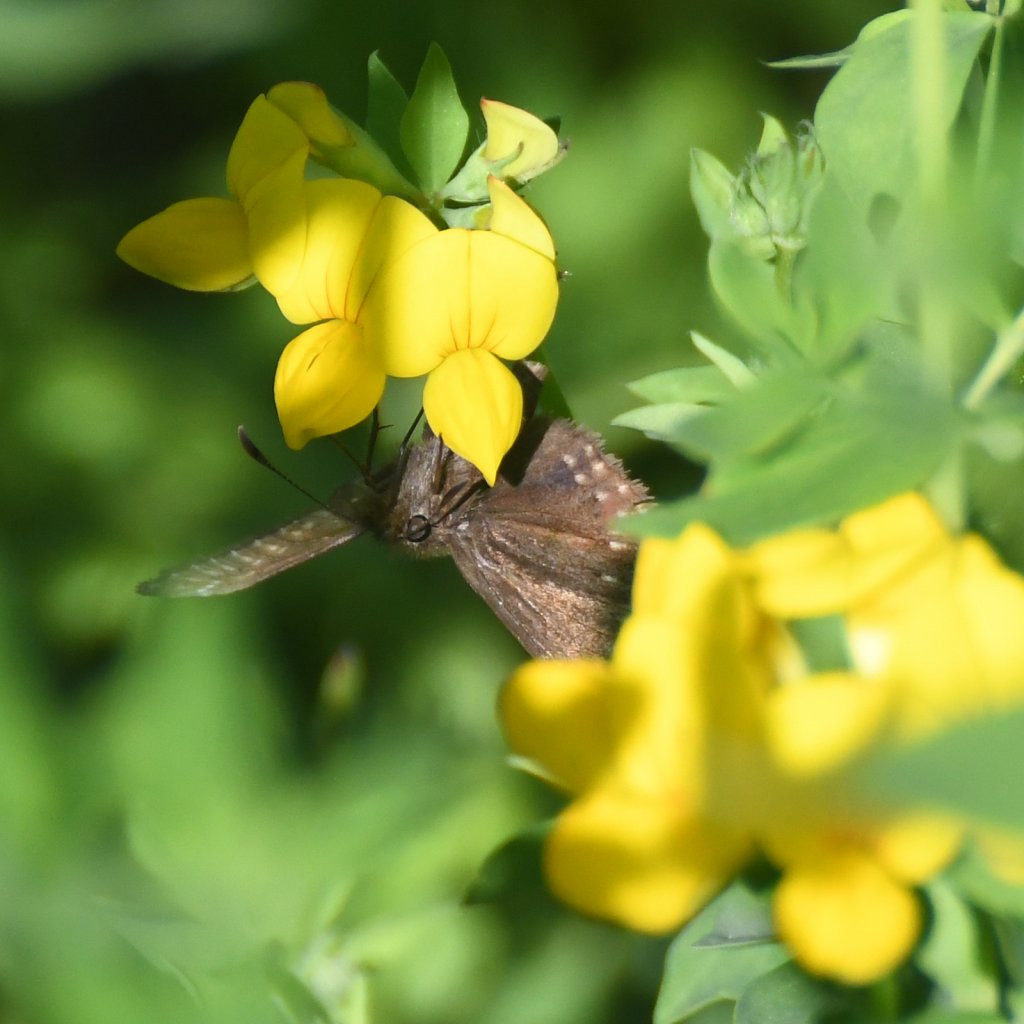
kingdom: Animalia
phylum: Arthropoda
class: Insecta
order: Lepidoptera
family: Hesperiidae
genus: Erynnis
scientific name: Erynnis icelus
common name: Dreamy Duskywing
